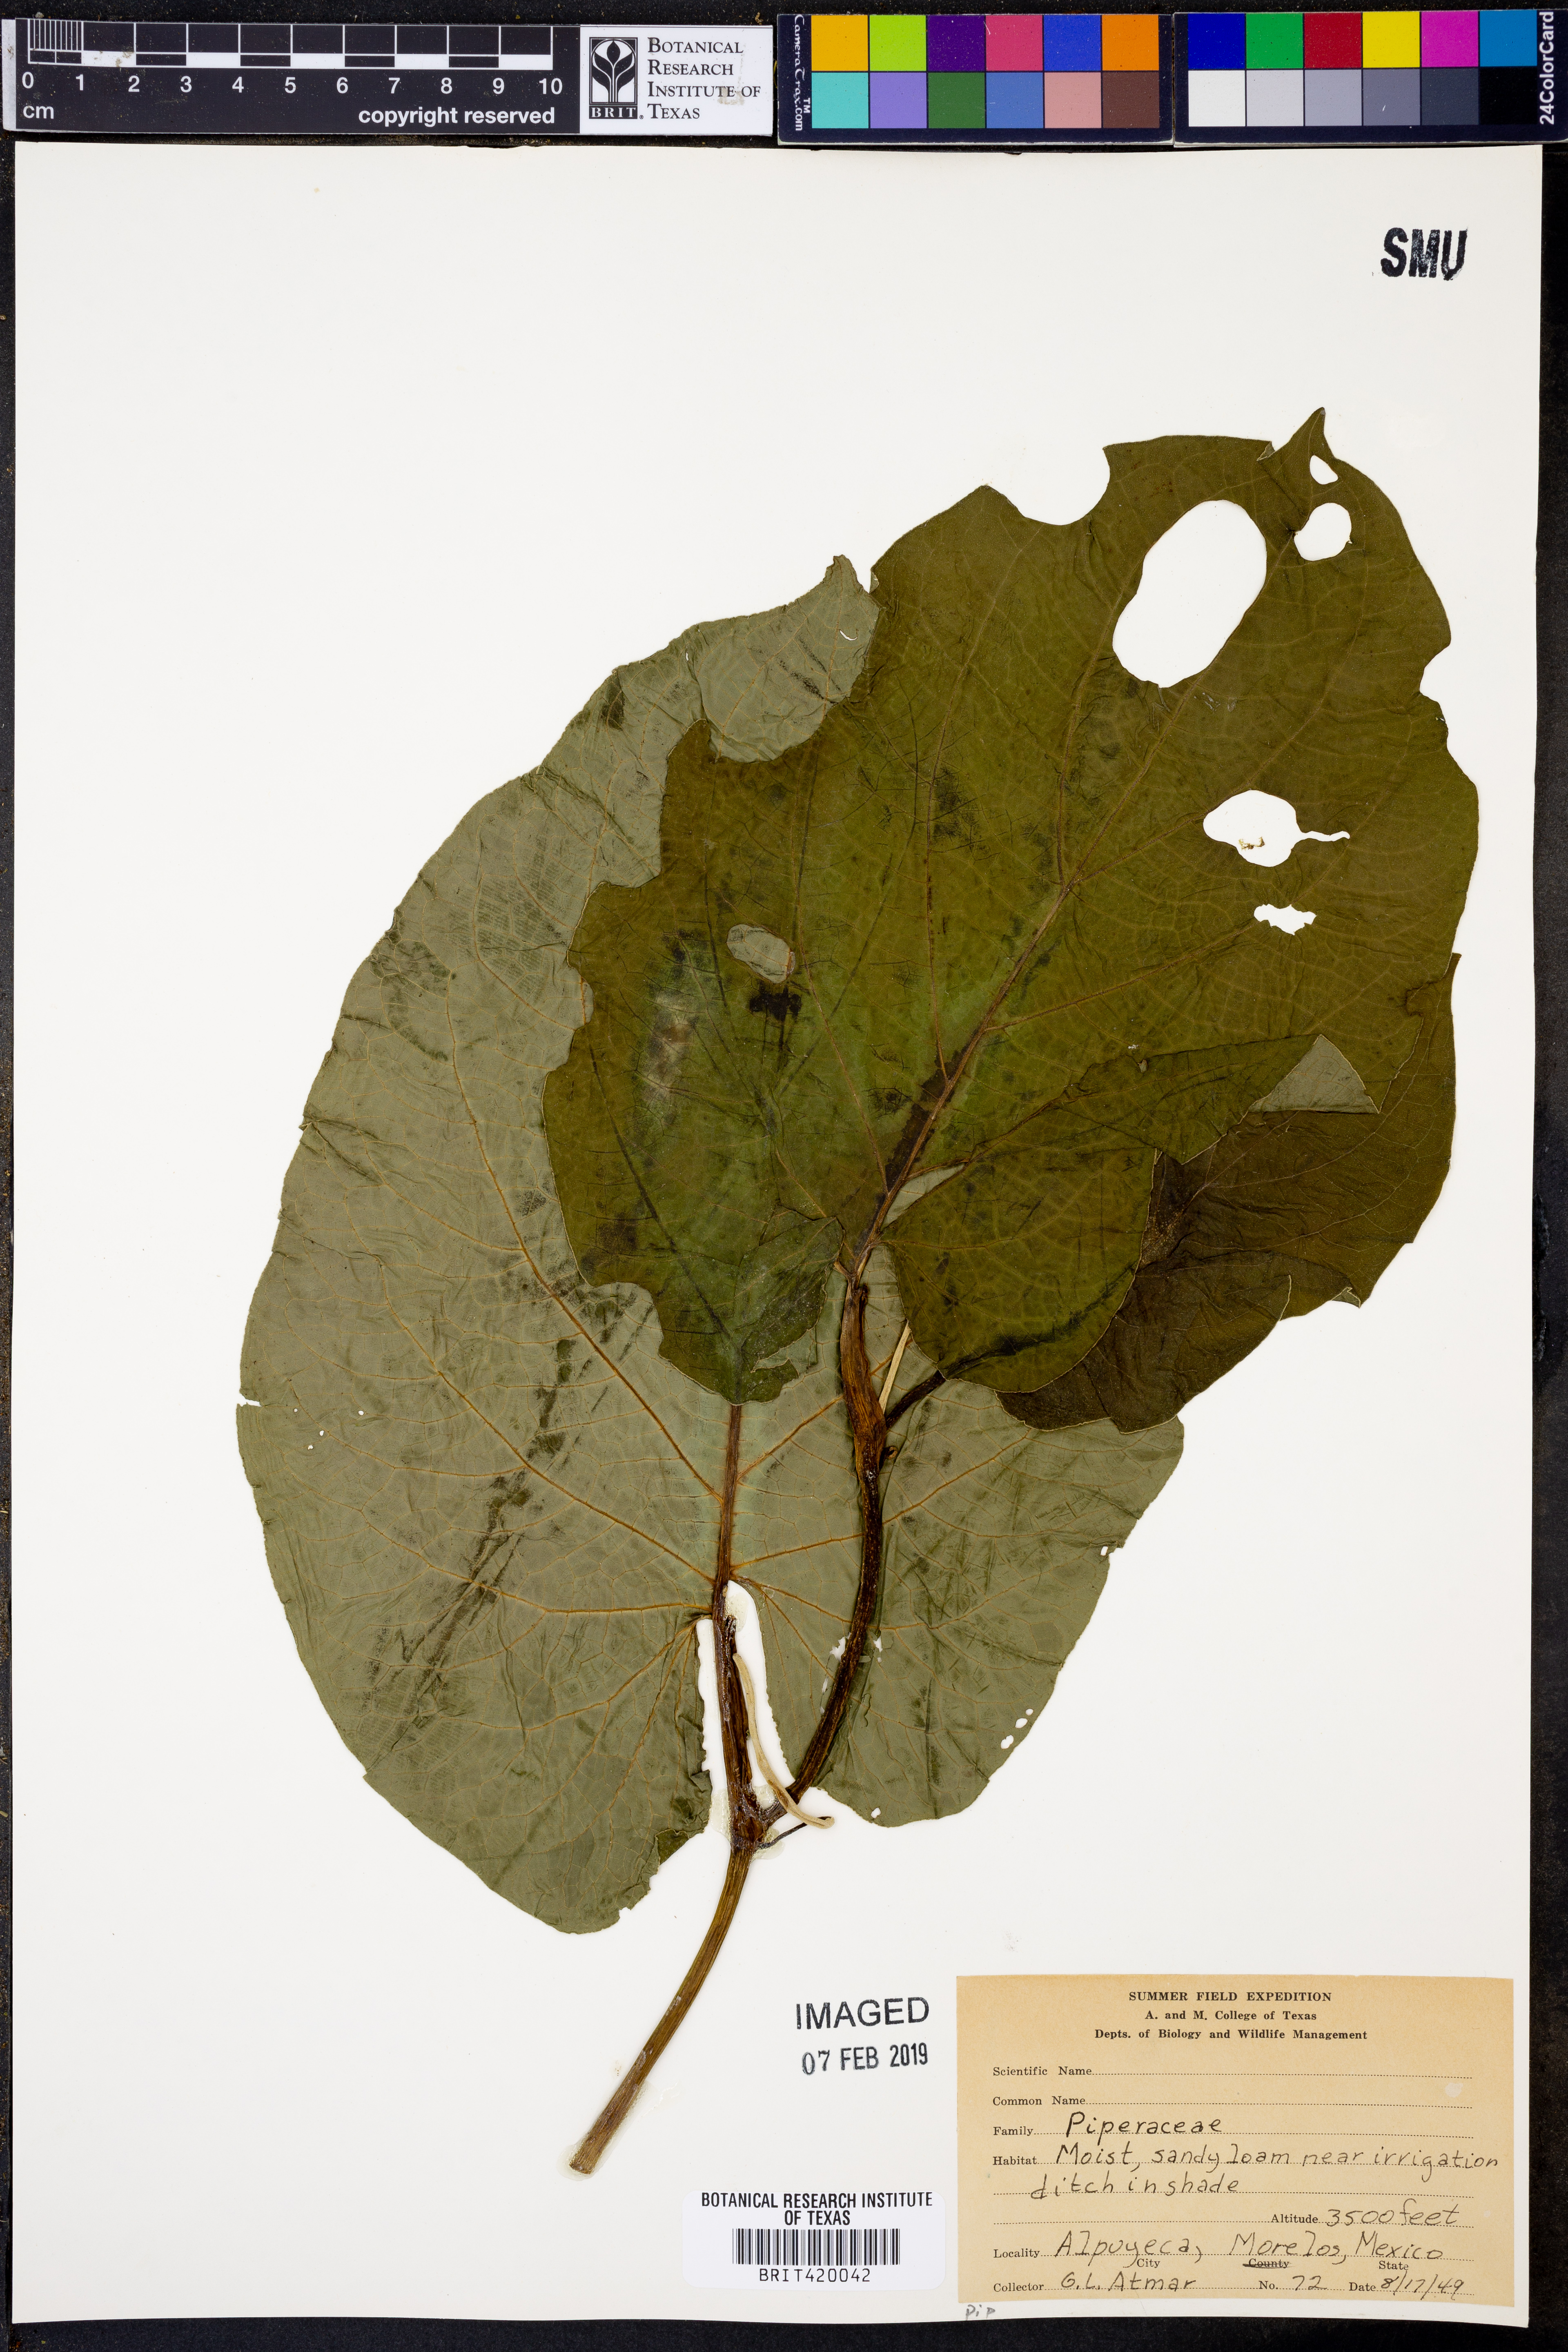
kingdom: Plantae
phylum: Tracheophyta
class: Magnoliopsida
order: Piperales
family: Piperaceae
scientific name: Piperaceae
